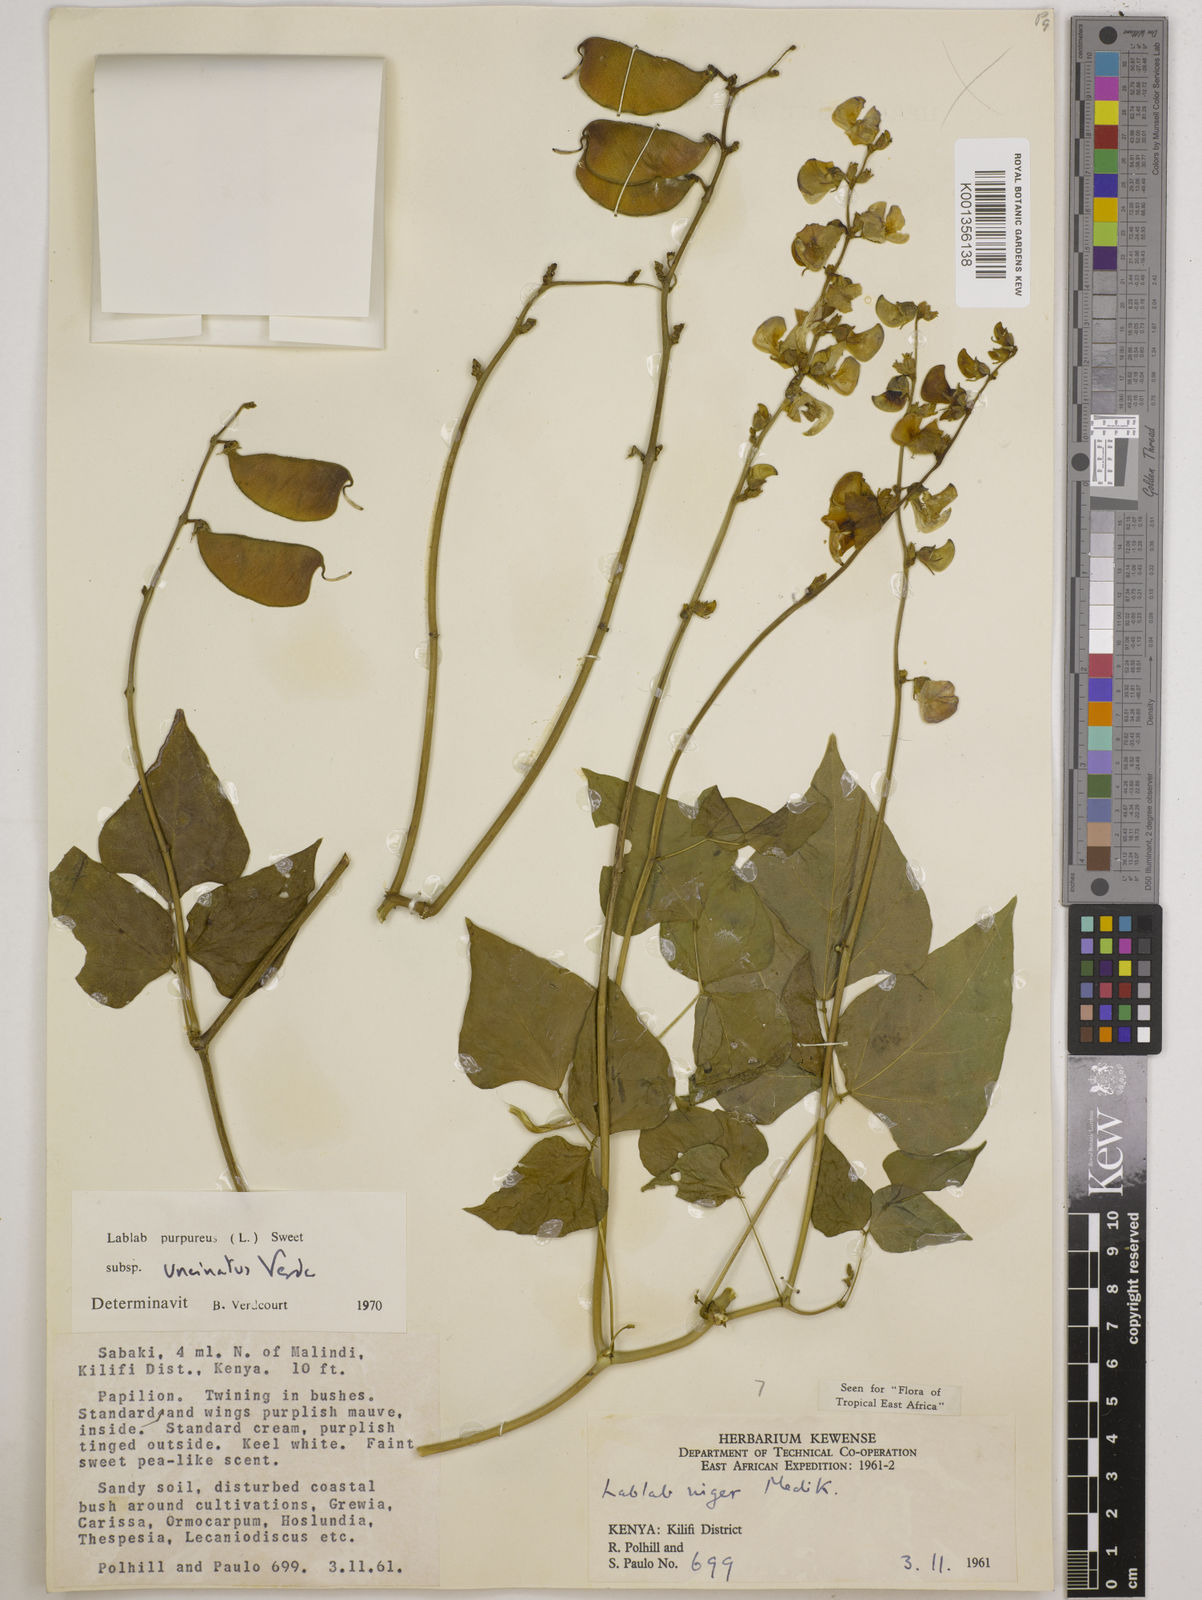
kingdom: Plantae
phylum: Tracheophyta
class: Magnoliopsida
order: Fabales
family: Fabaceae
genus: Lablab
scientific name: Lablab purpureus
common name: Lablab-bean
